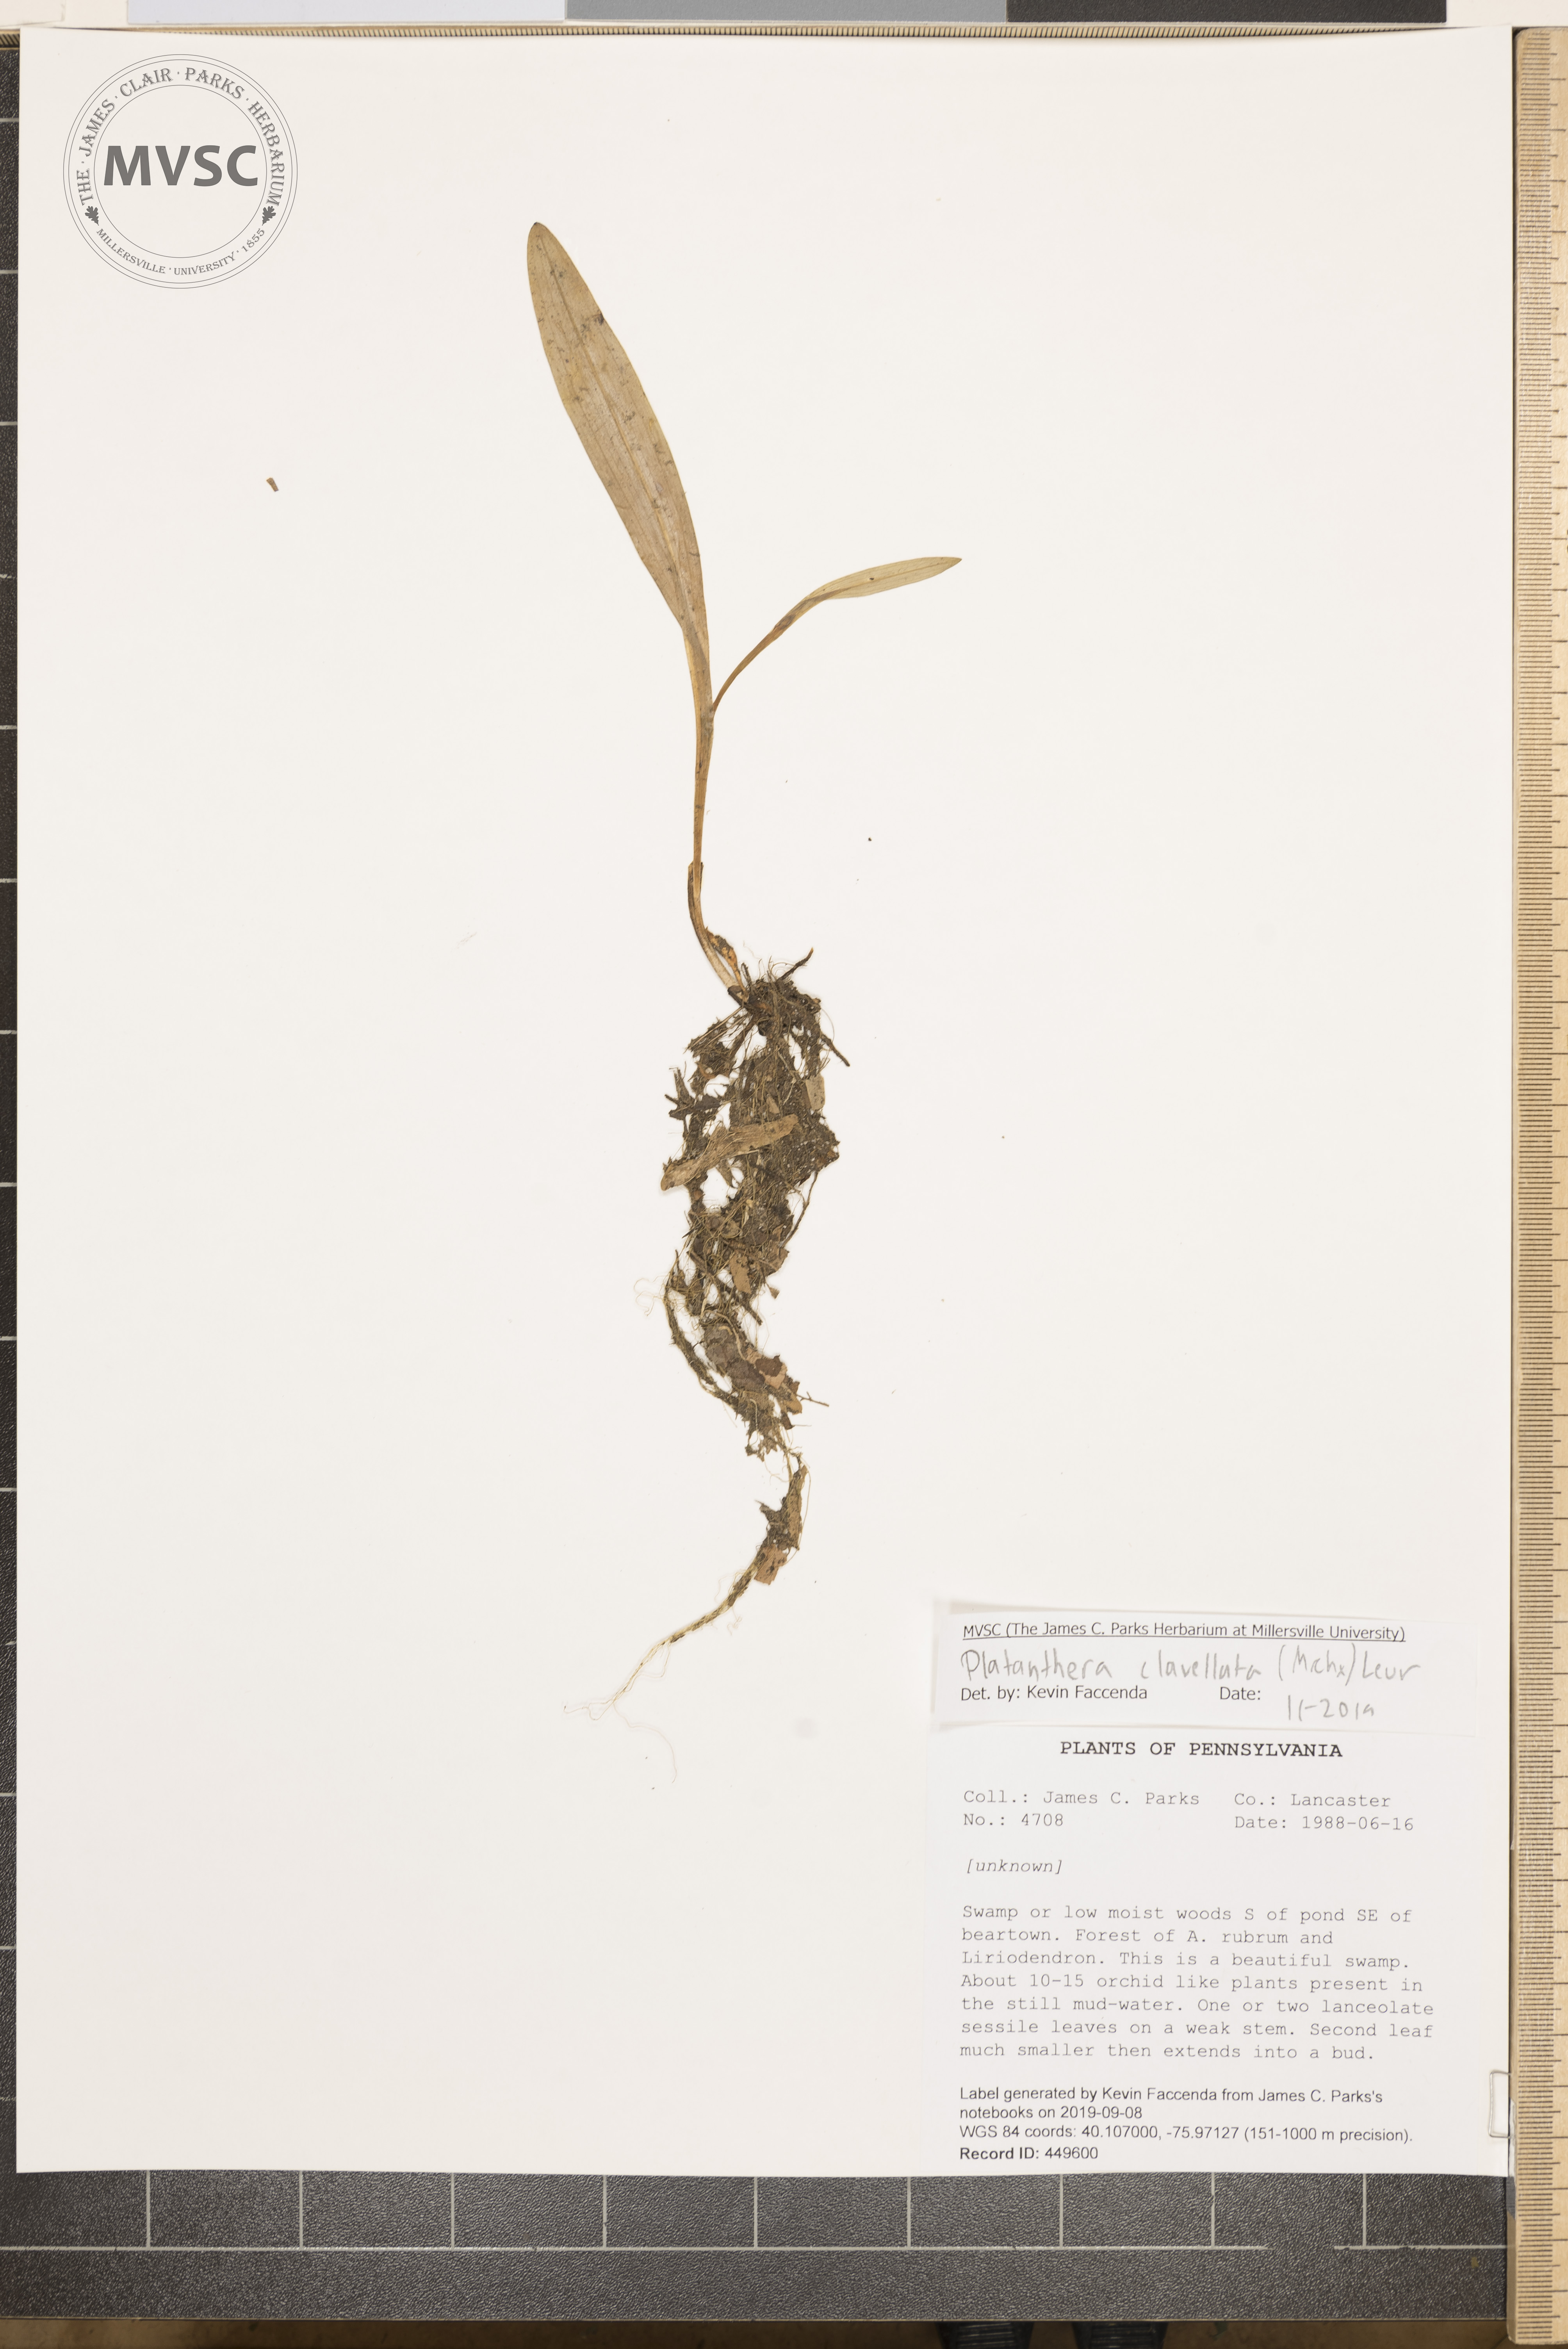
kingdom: Plantae
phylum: Tracheophyta
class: Liliopsida
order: Asparagales
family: Orchidaceae
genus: Platanthera
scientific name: Platanthera clavellata
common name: Club-spur orchid
